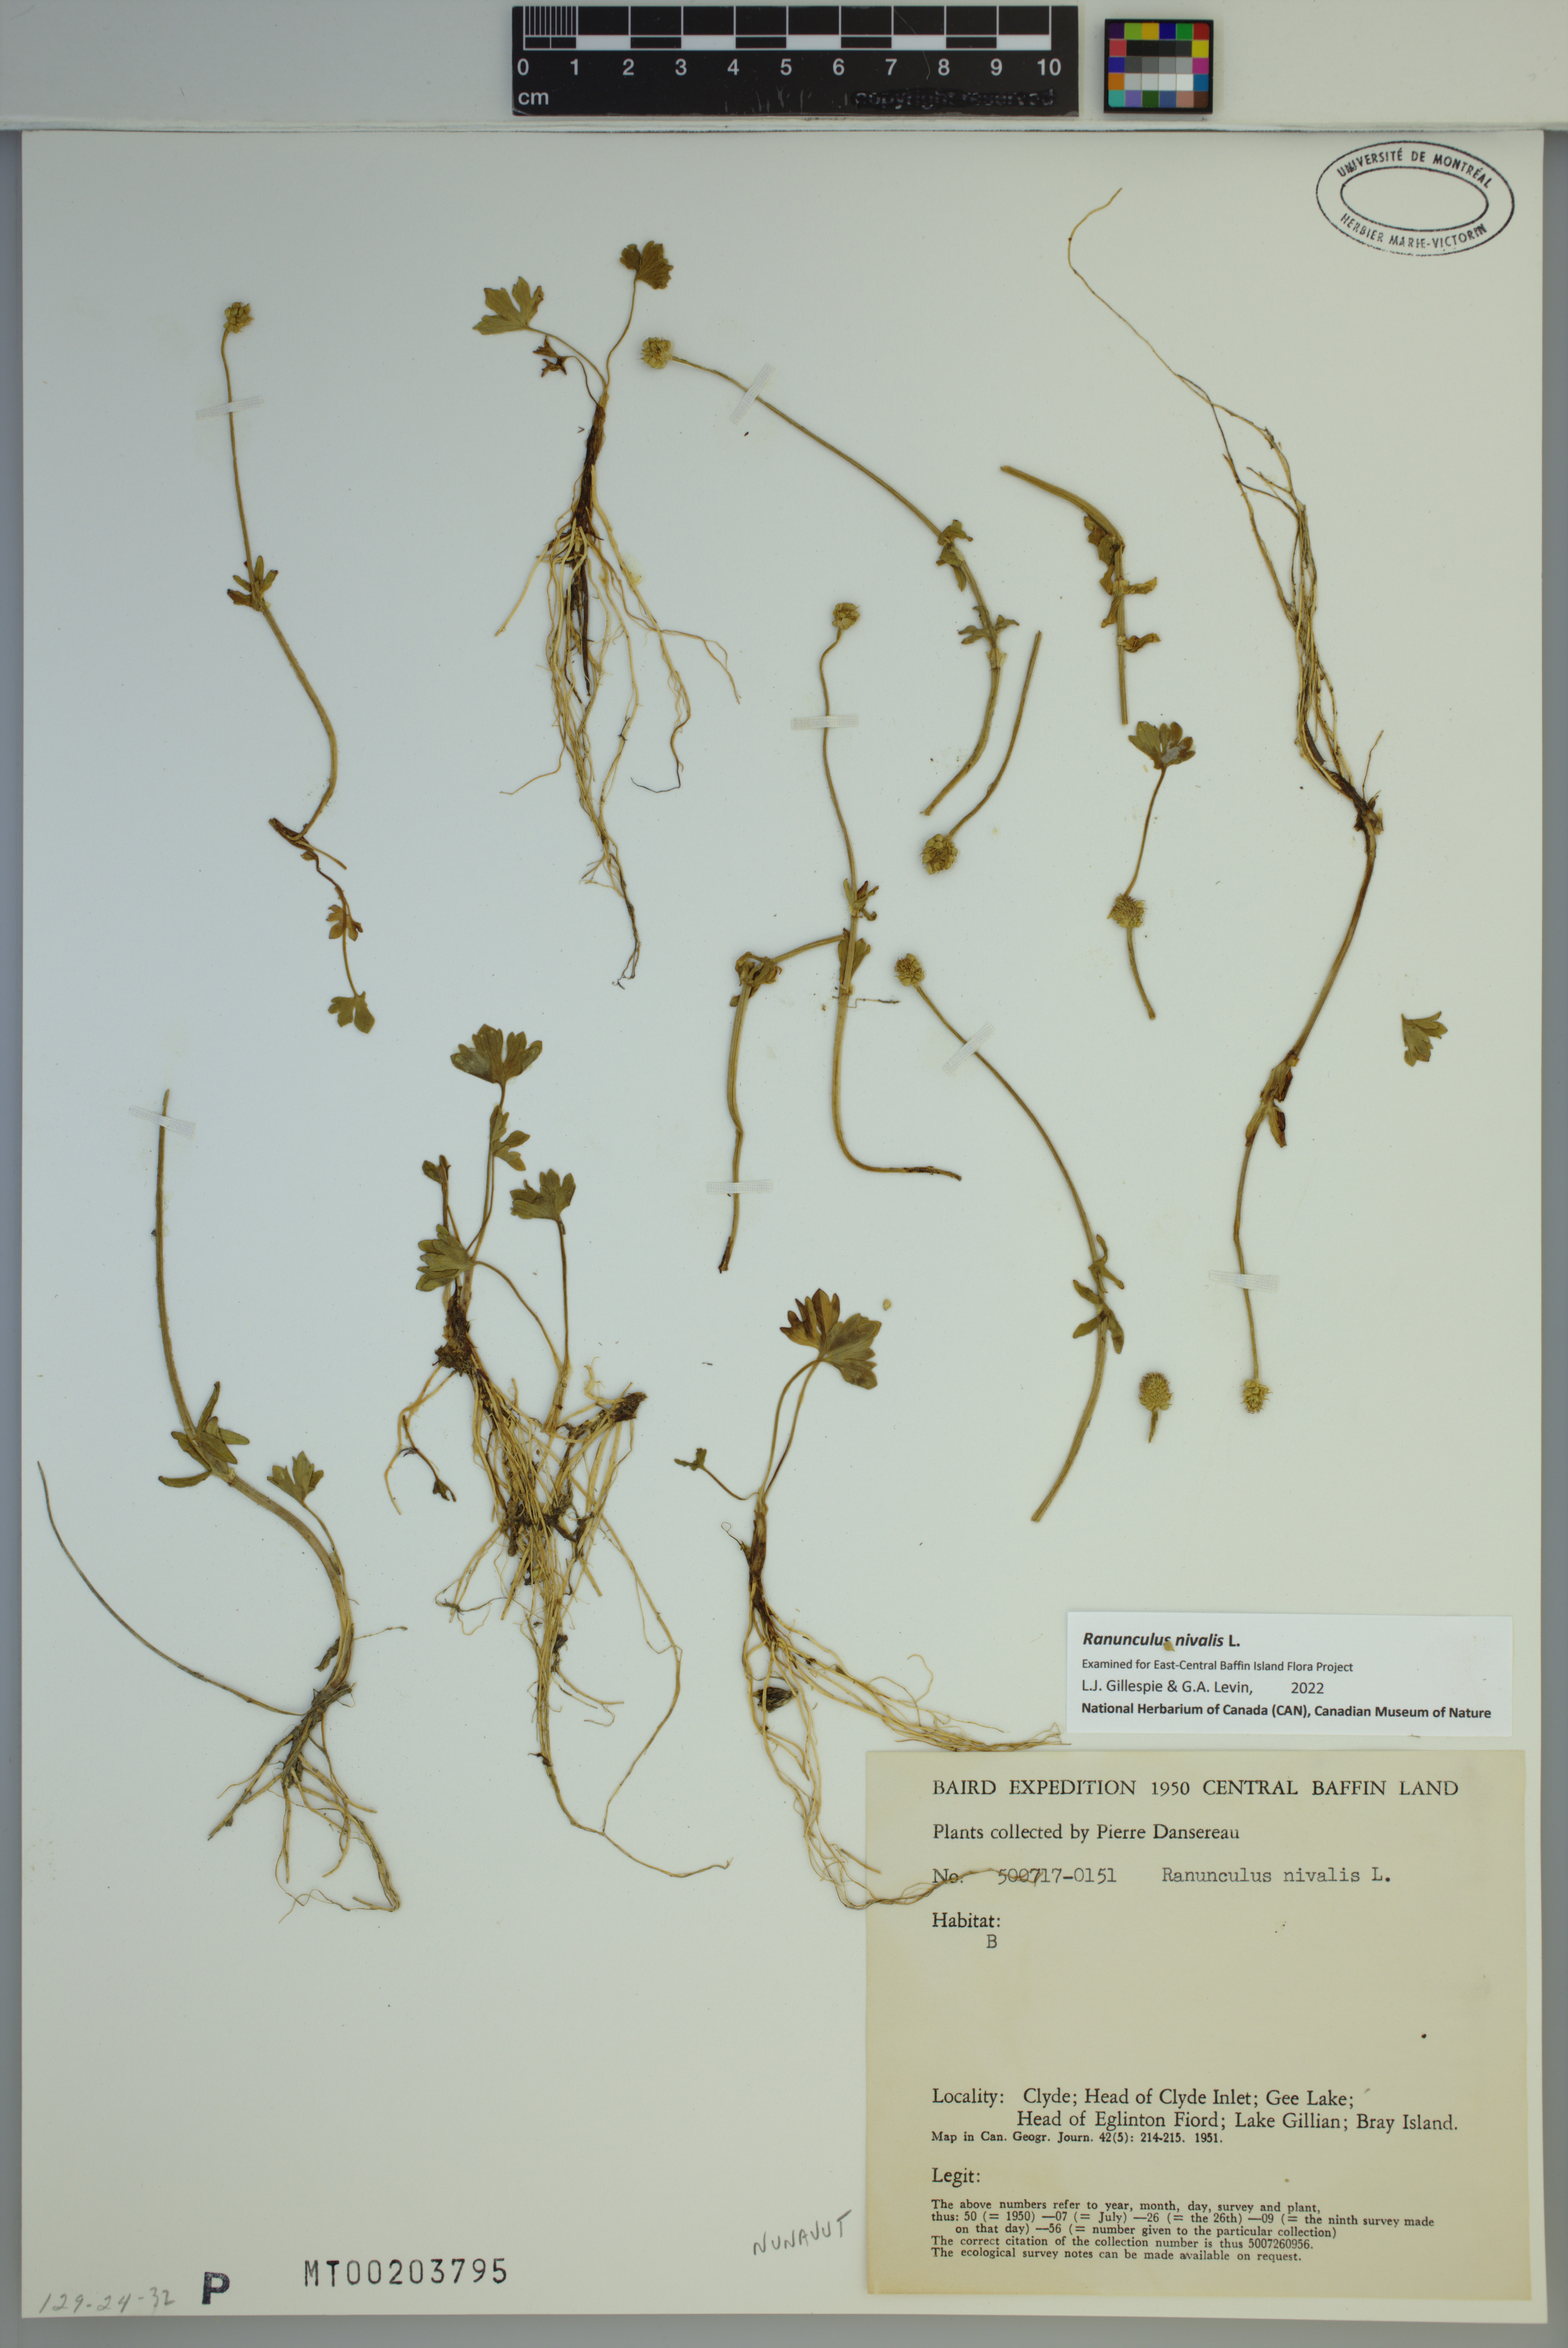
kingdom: Plantae
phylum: Tracheophyta
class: Magnoliopsida
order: Ranunculales
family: Ranunculaceae
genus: Ranunculus
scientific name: Ranunculus nivalis
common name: Snow buttercup
